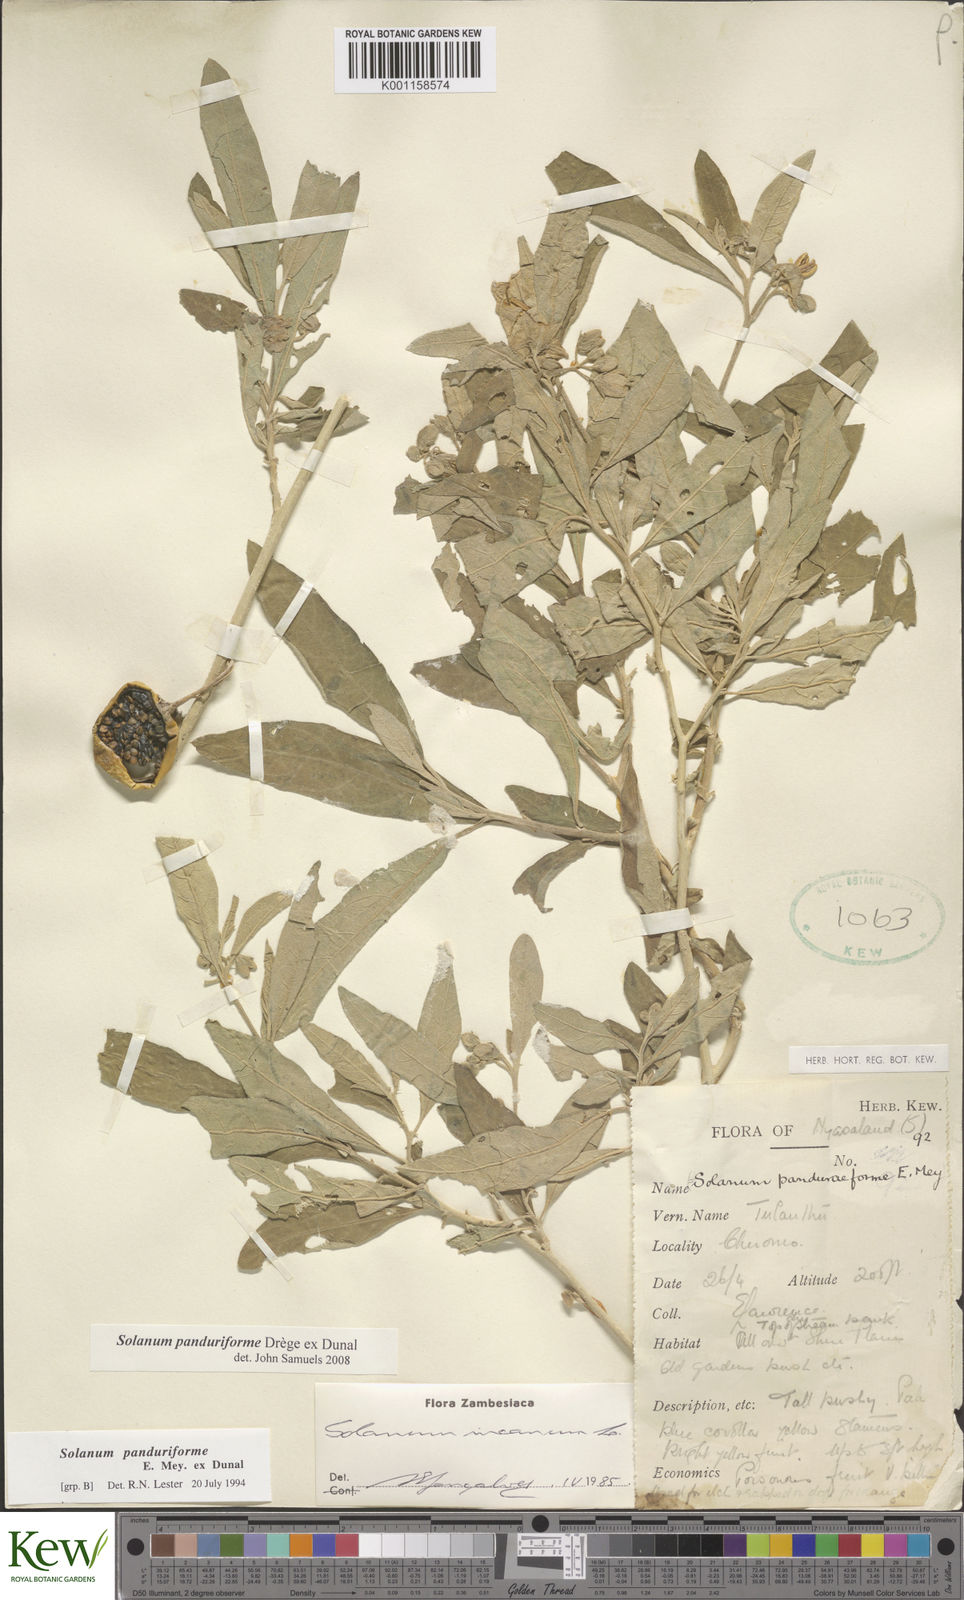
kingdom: Plantae
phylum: Tracheophyta
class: Magnoliopsida
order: Solanales
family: Solanaceae
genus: Solanum
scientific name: Solanum campylacanthum
